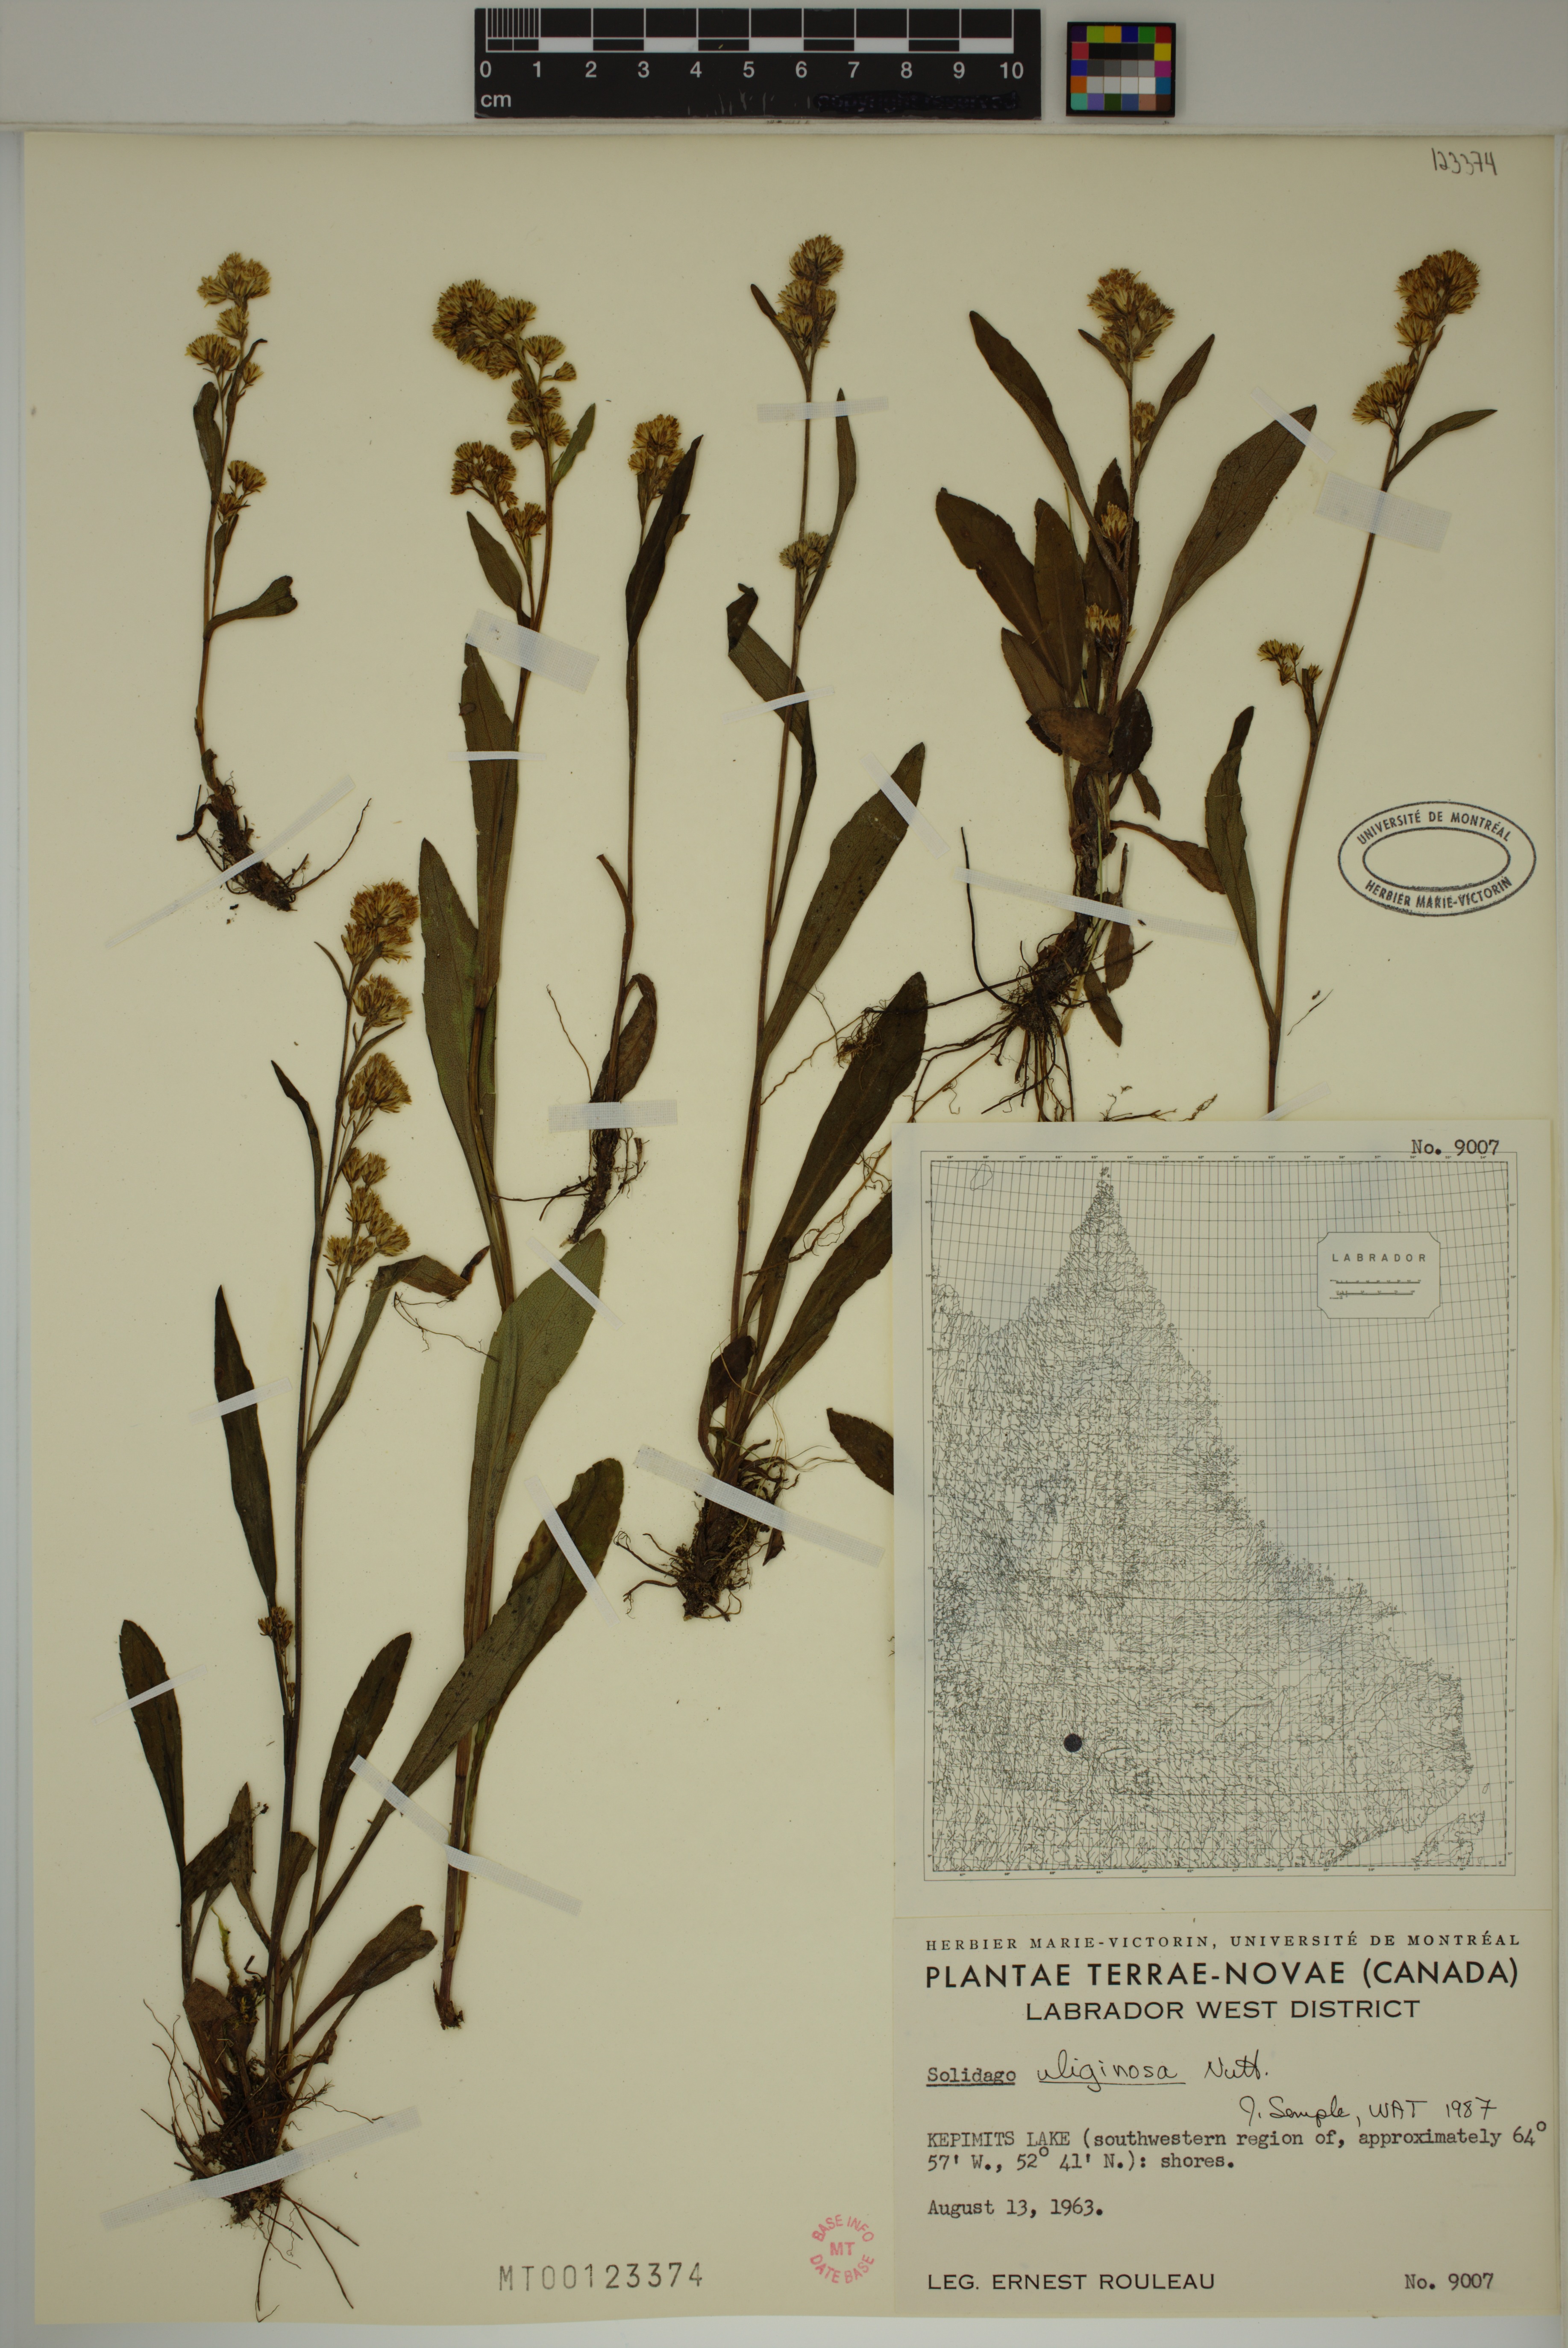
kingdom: Plantae
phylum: Tracheophyta
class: Magnoliopsida
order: Asterales
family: Asteraceae
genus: Solidago
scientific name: Solidago uliginosa
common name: Bog goldenrod
